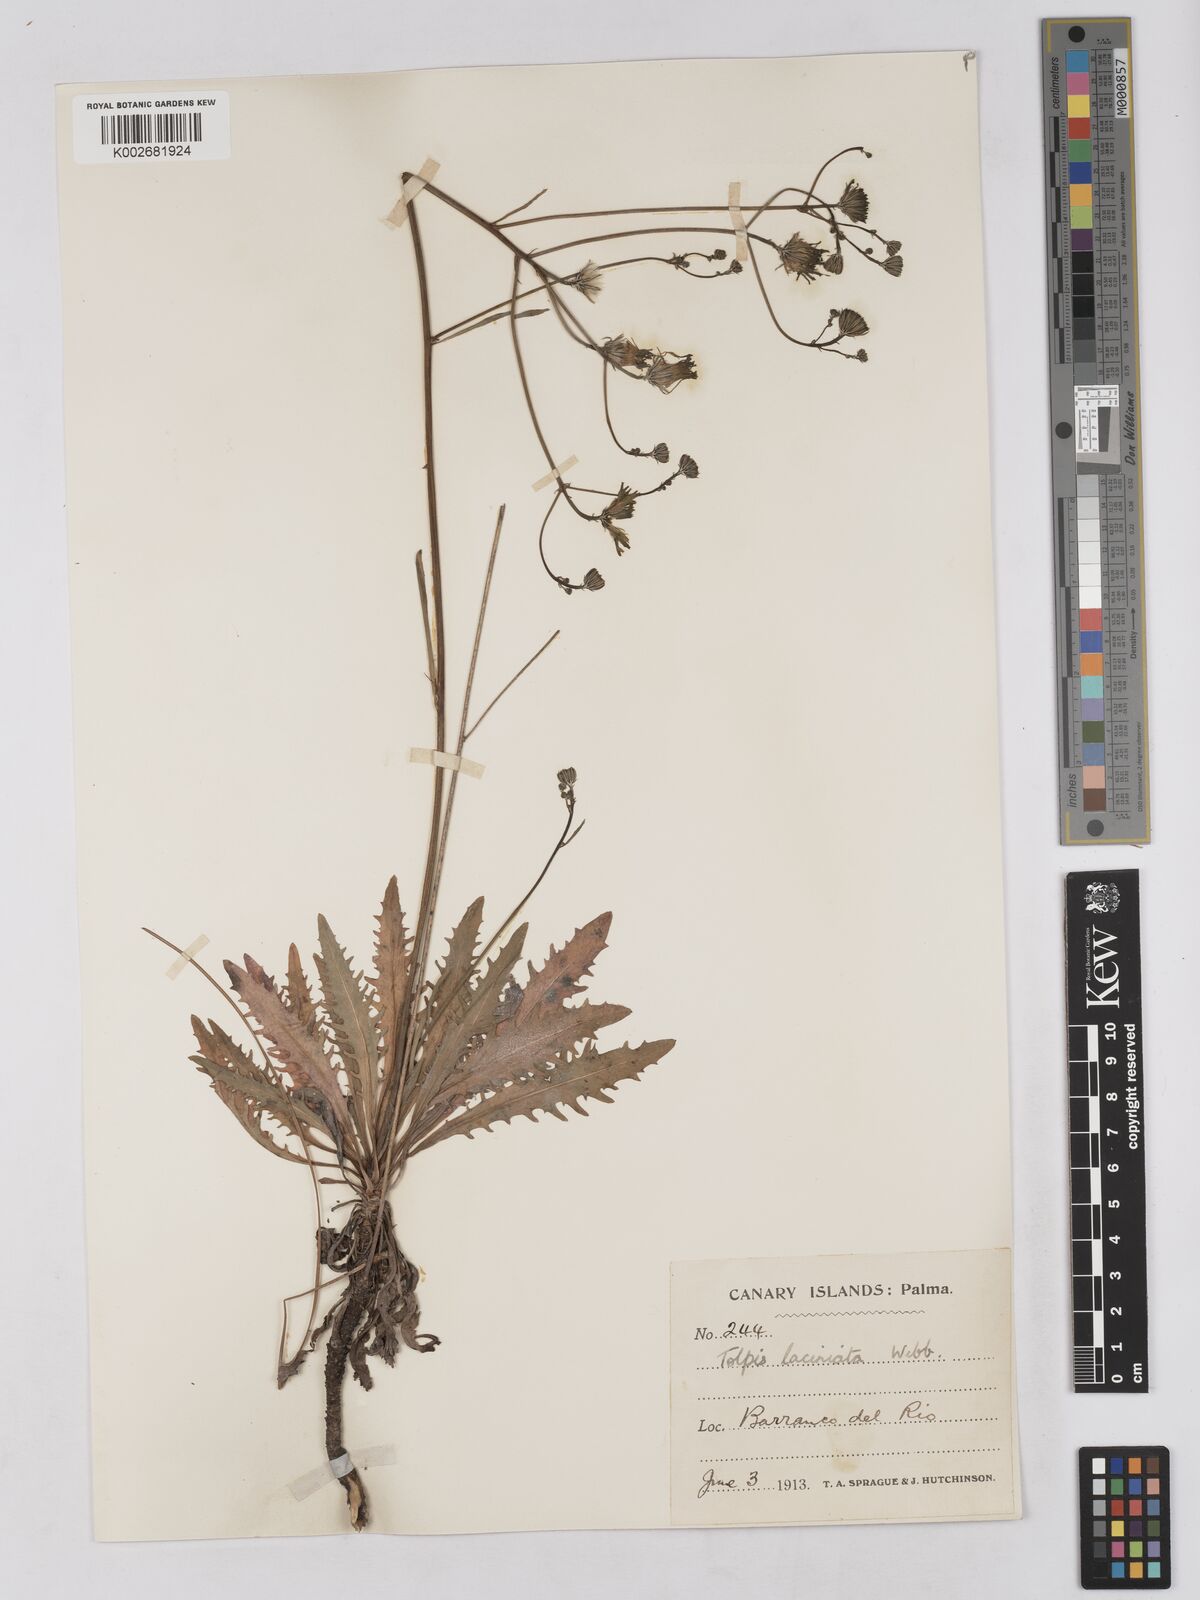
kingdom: Plantae
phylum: Tracheophyta
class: Magnoliopsida
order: Asterales
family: Asteraceae
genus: Tolpis
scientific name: Tolpis laciniata
